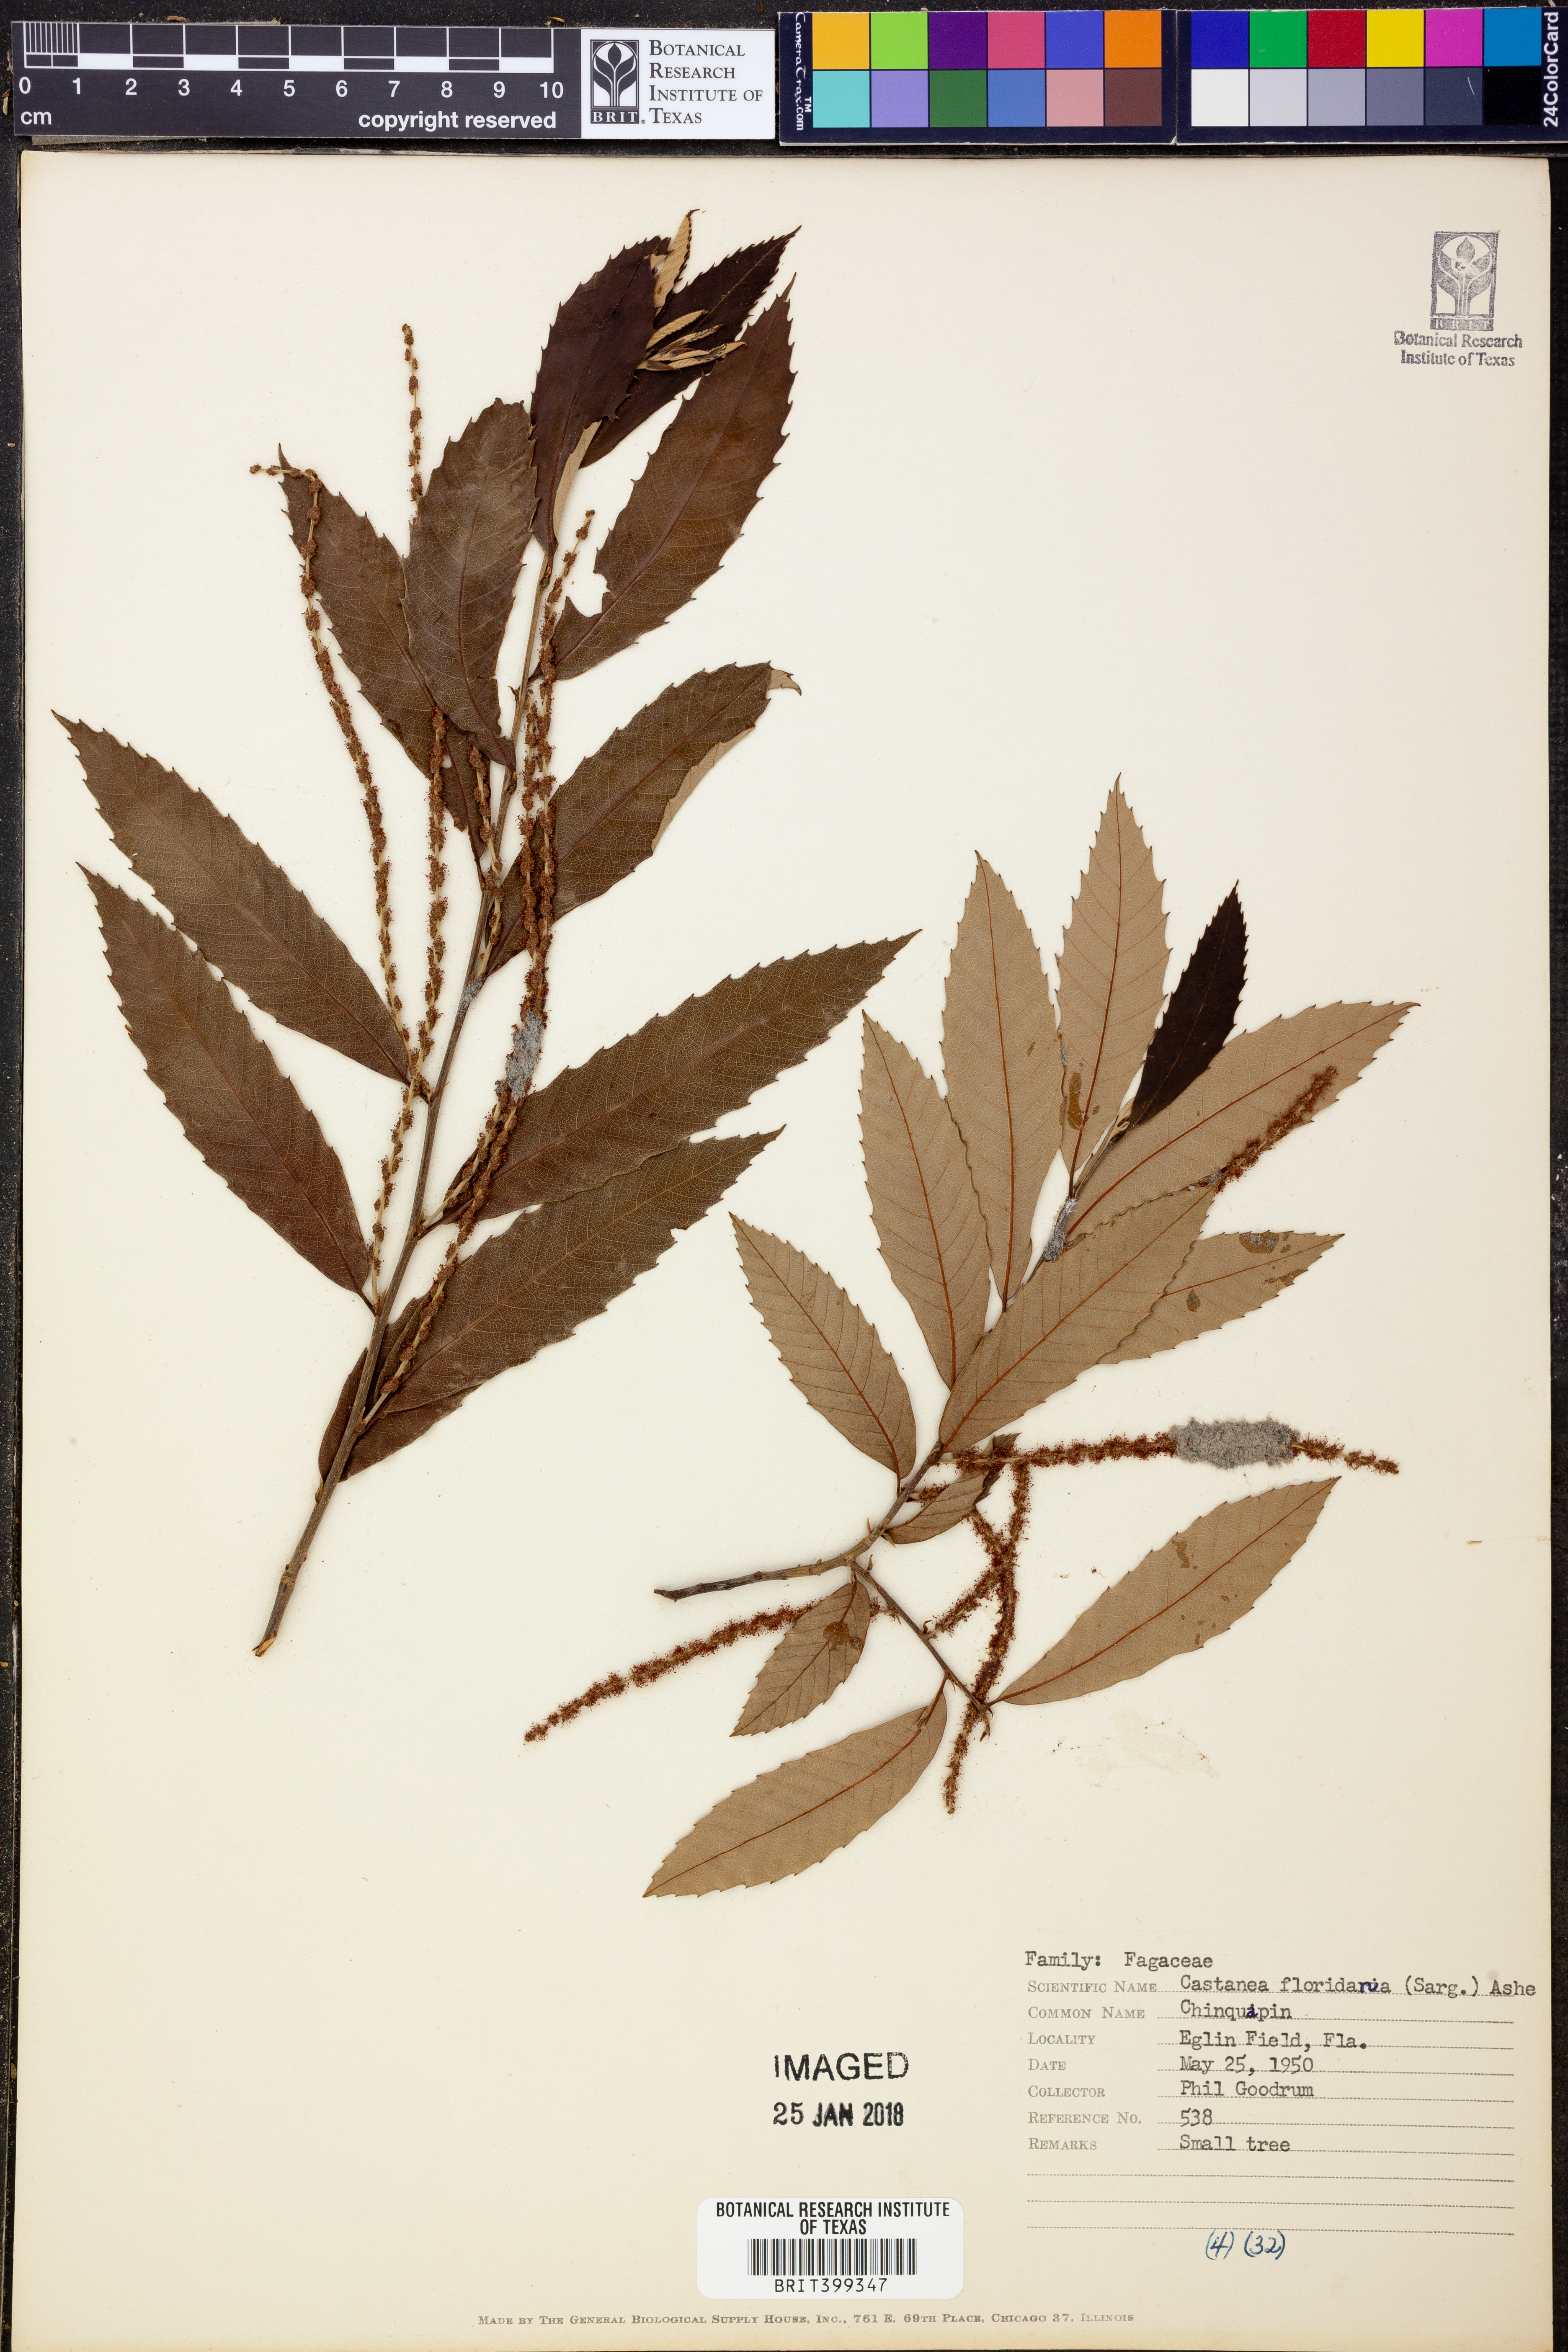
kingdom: Plantae
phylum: Tracheophyta
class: Magnoliopsida
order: Fagales
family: Fagaceae
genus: Castanea
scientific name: Castanea pumila
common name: Chinkapin
